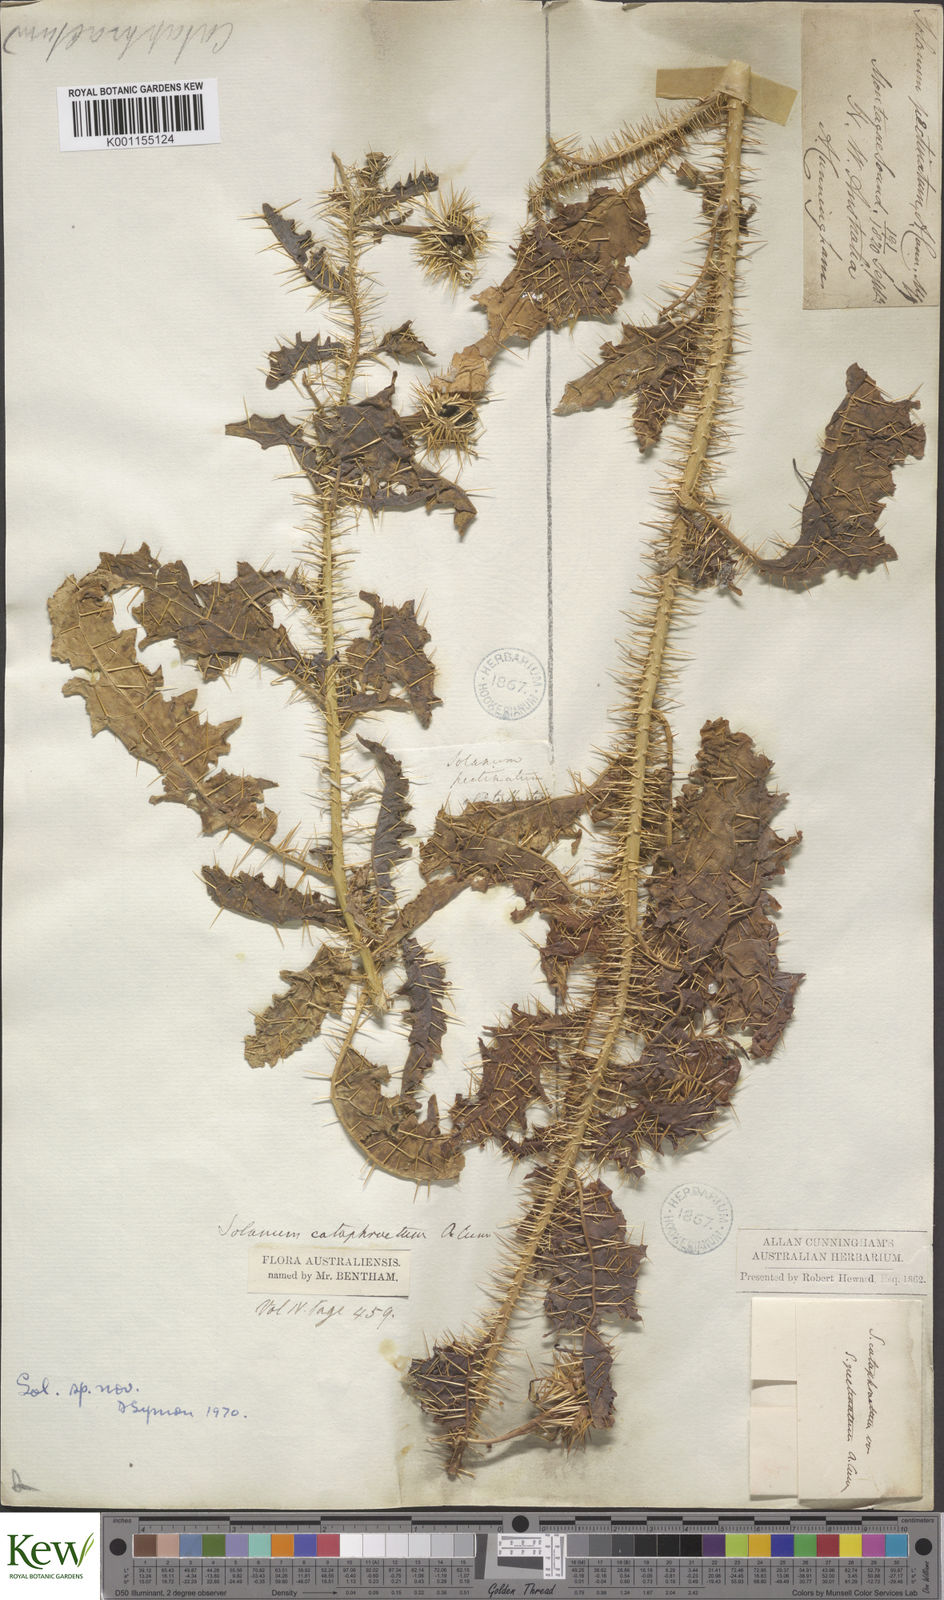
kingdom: Plantae
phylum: Tracheophyta
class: Magnoliopsida
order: Solanales
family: Solanaceae
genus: Solanum
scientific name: Solanum oedipus
